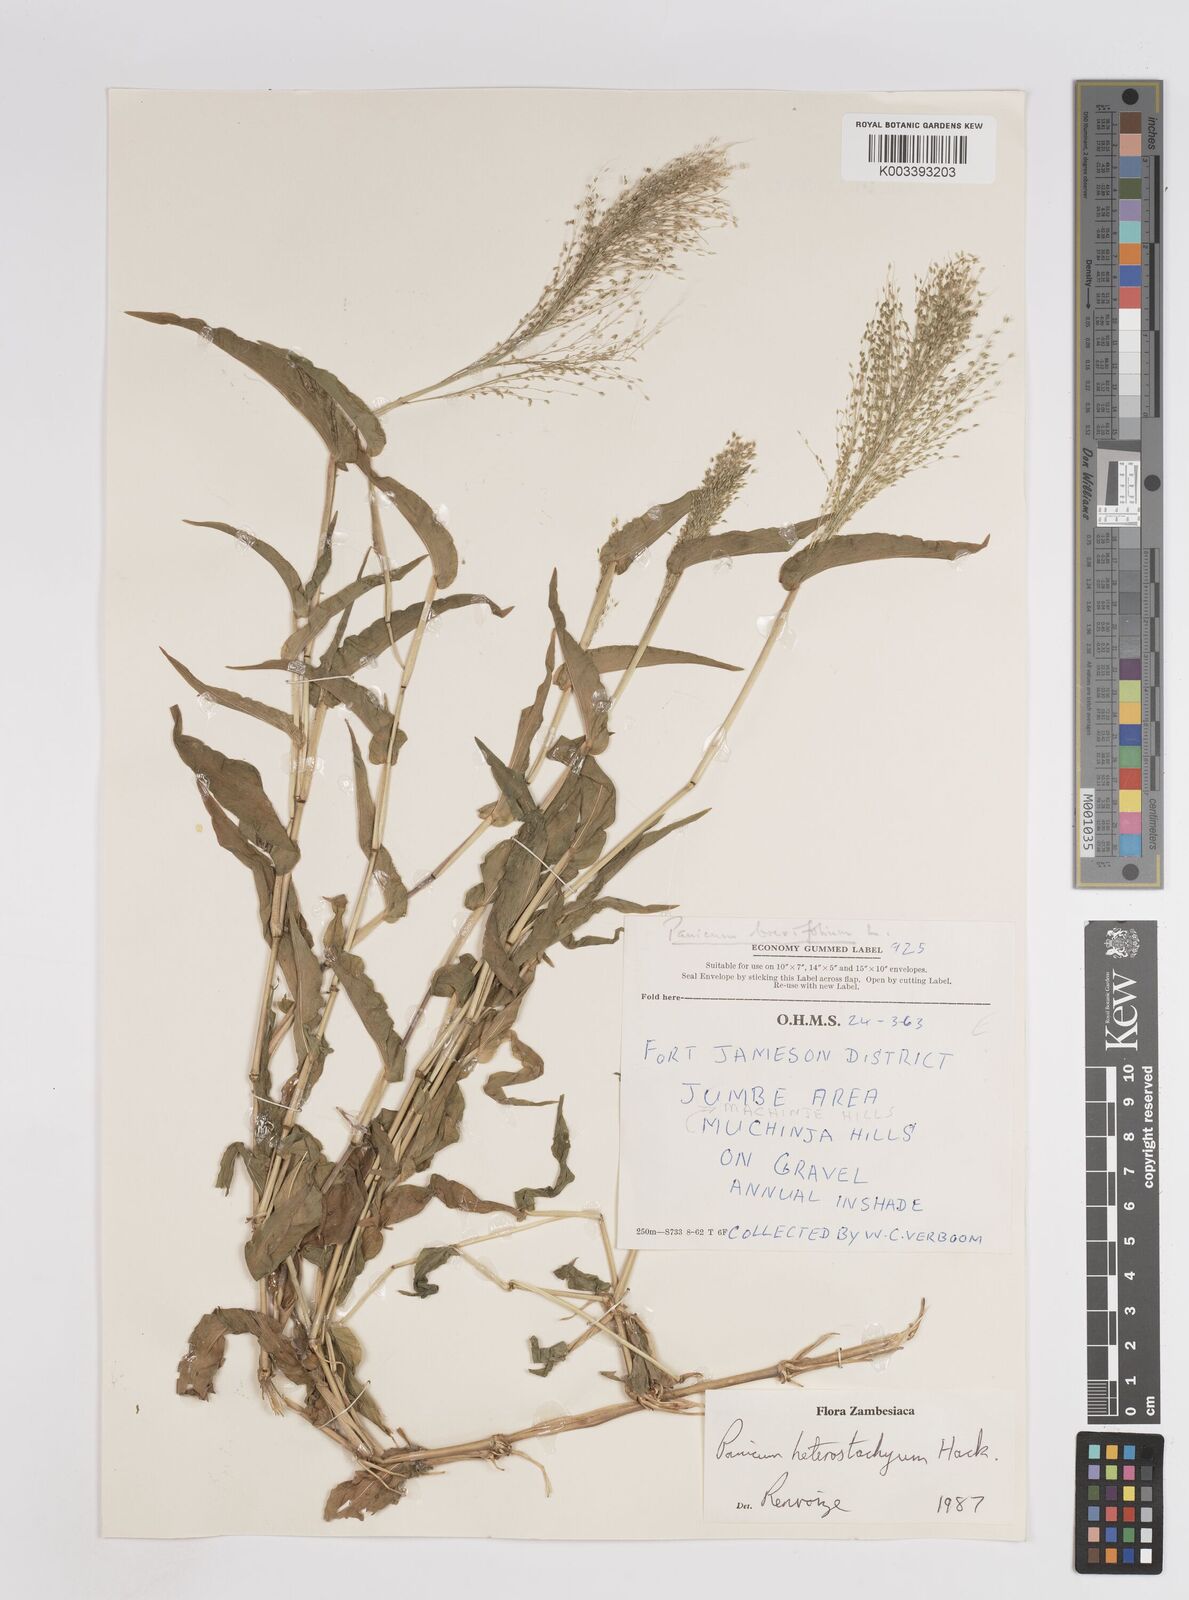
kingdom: Plantae
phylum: Tracheophyta
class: Liliopsida
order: Poales
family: Poaceae
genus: Panicum
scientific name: Panicum hirtum
